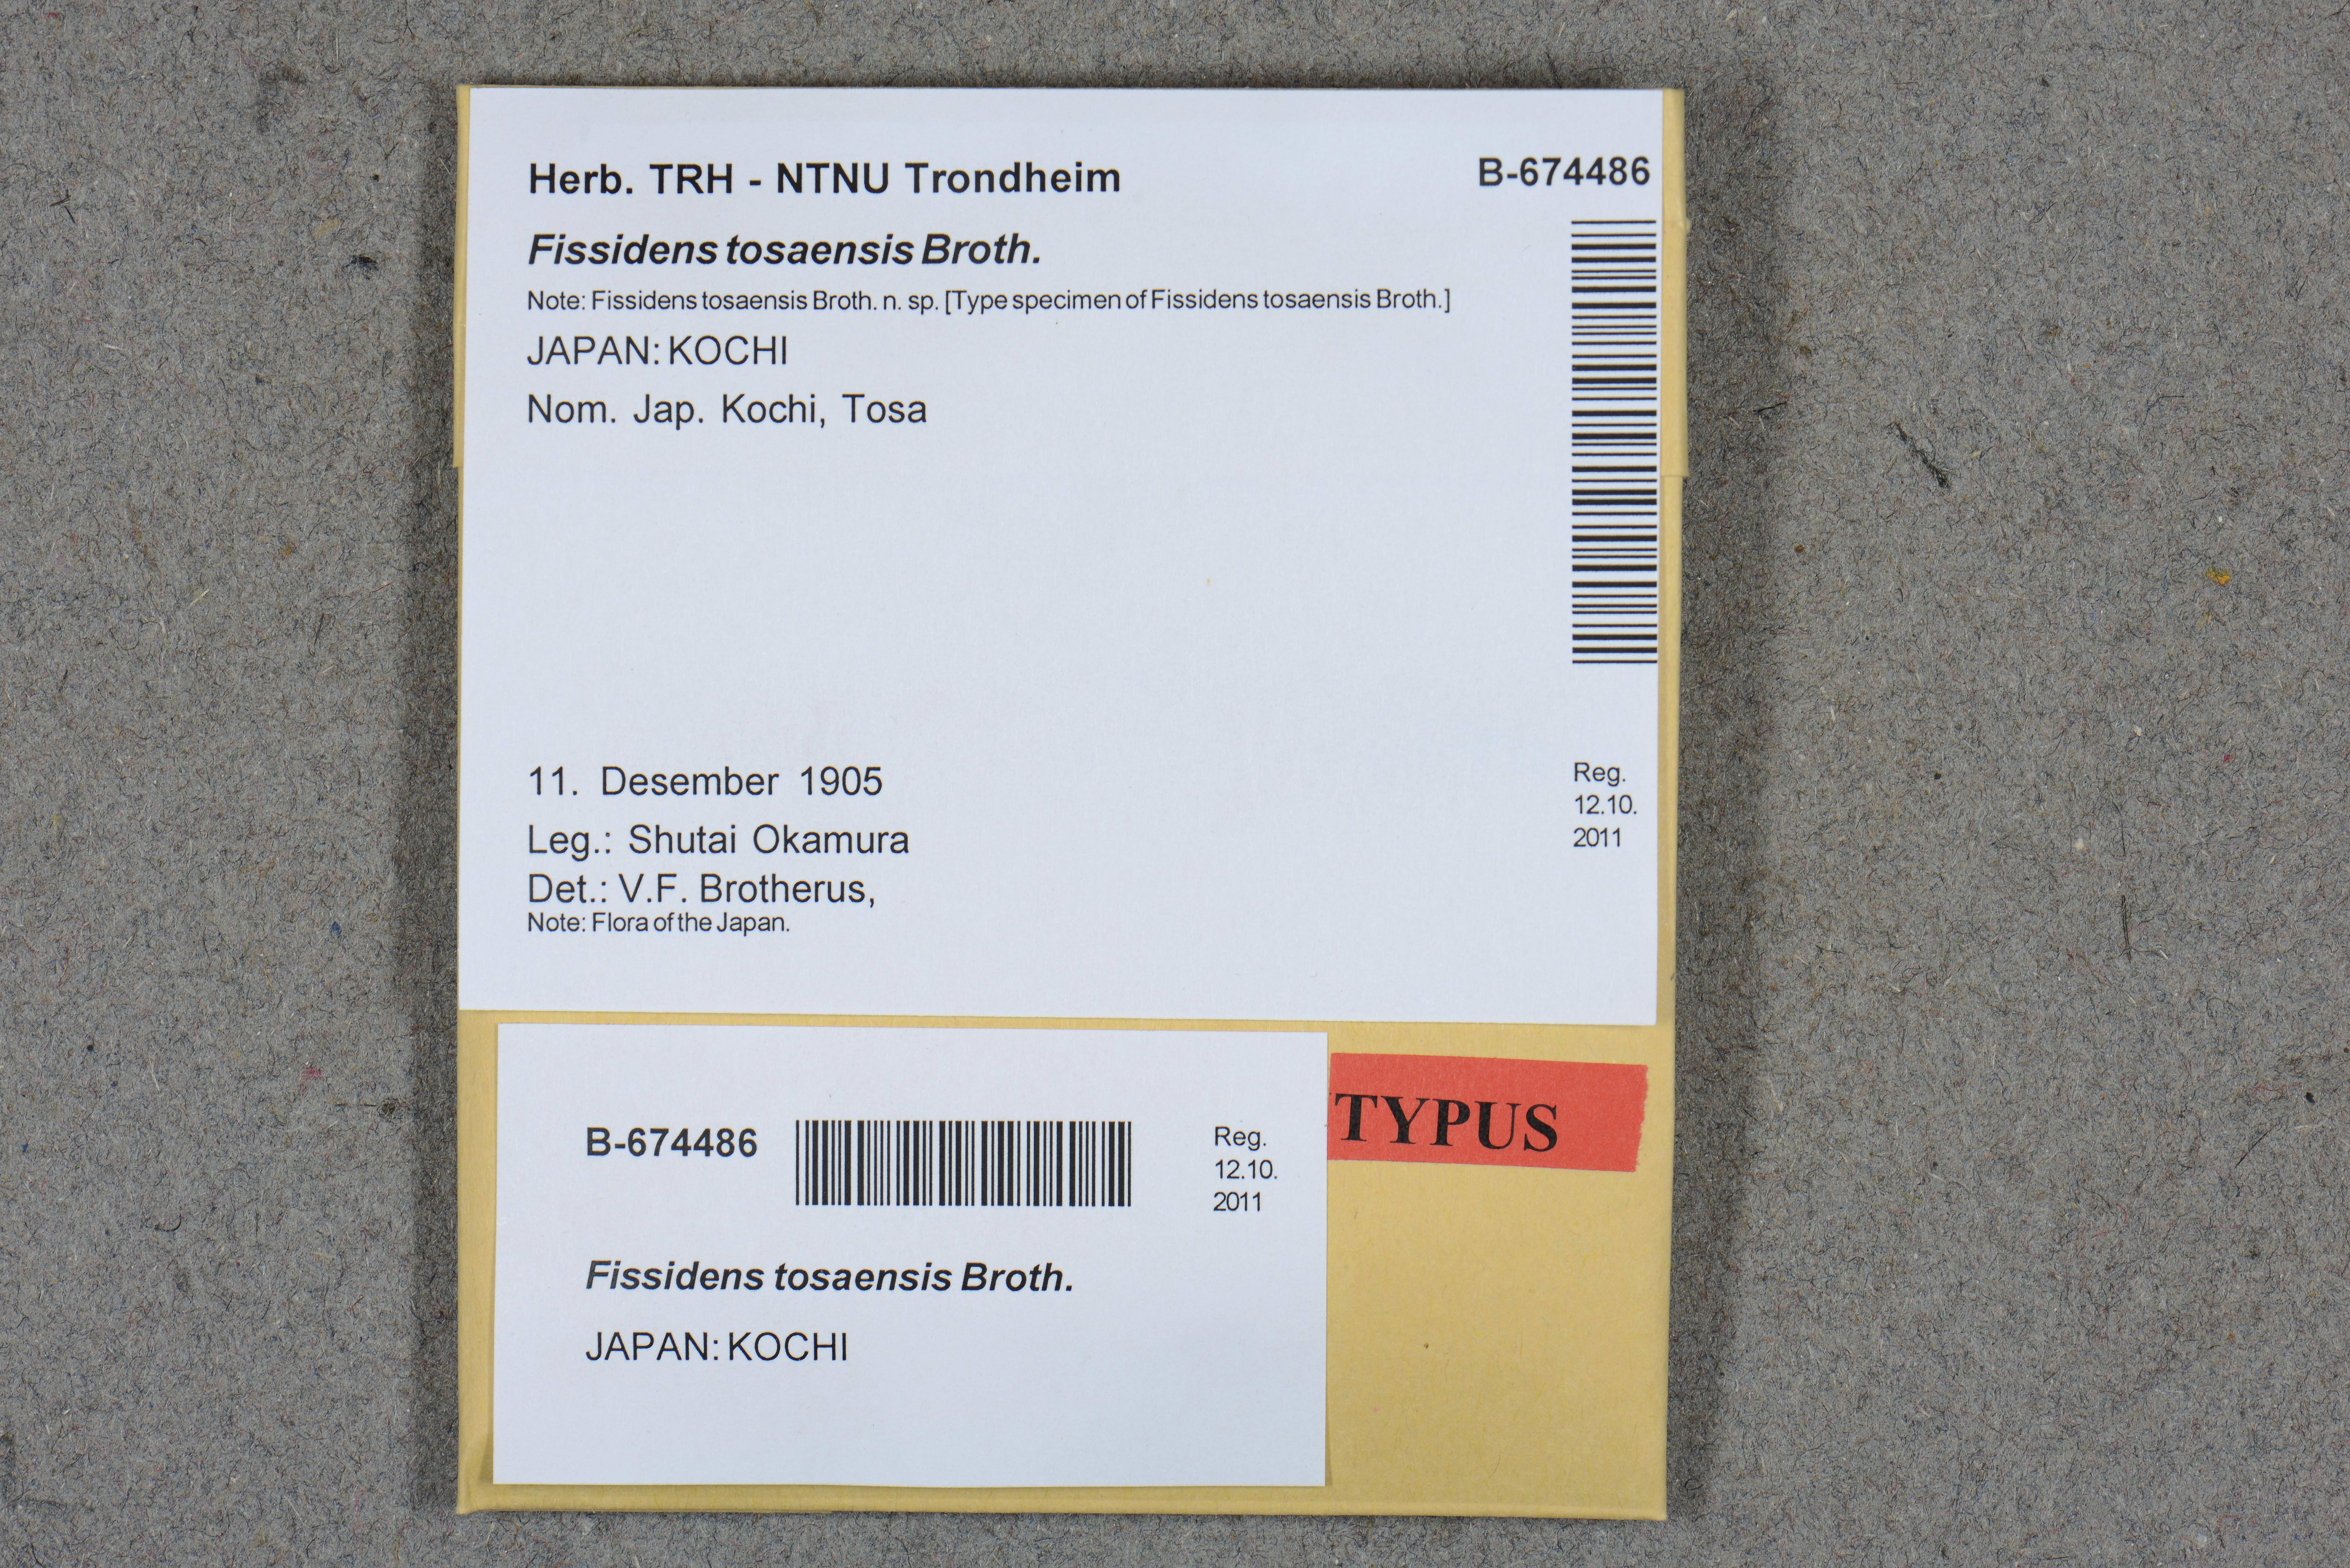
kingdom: Plantae
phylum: Bryophyta
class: Bryopsida
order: Dicranales
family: Fissidentaceae
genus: Fissidens
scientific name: Fissidens tosaensis
